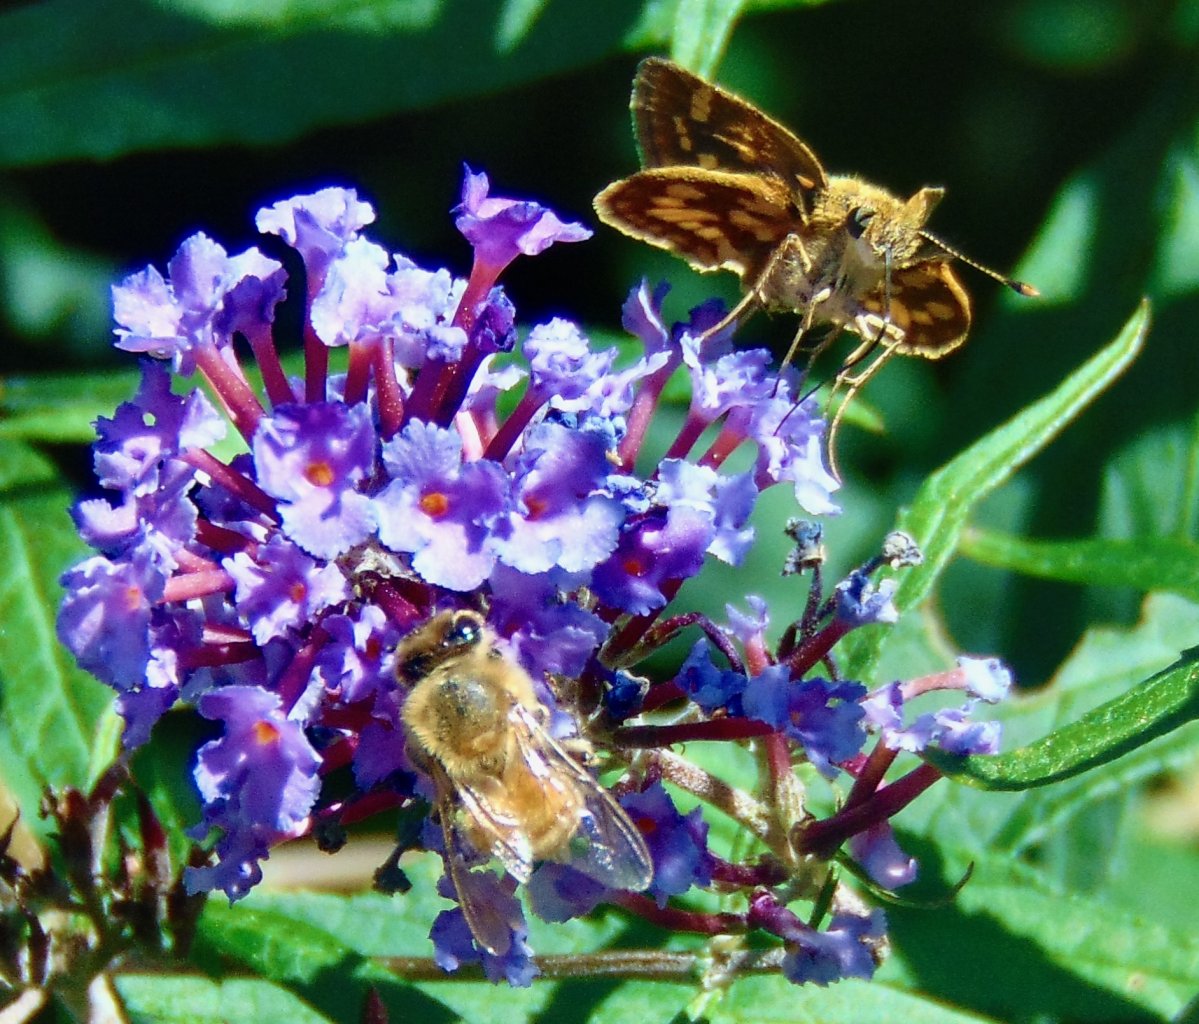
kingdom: Animalia
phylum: Arthropoda
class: Insecta
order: Lepidoptera
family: Hesperiidae
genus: Polites
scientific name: Polites coras
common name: Peck's Skipper
